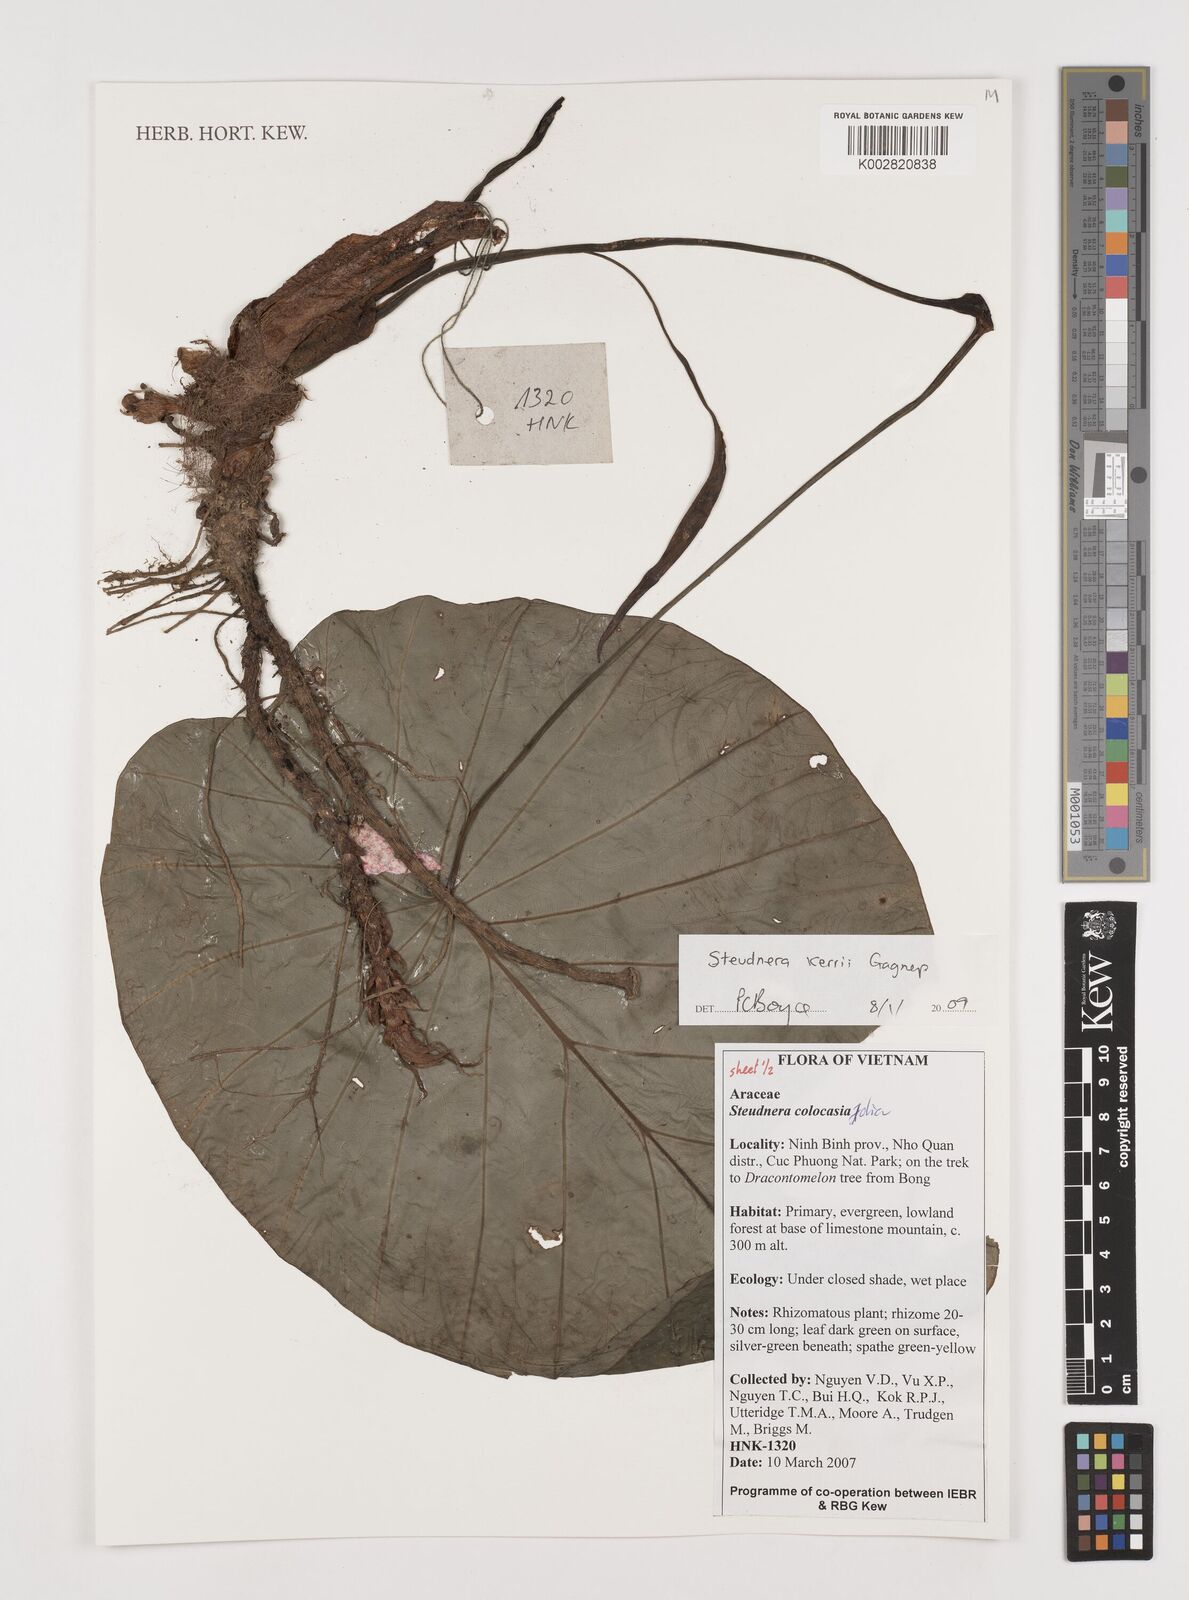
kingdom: Plantae
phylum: Tracheophyta
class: Liliopsida
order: Alismatales
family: Araceae
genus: Steudnera
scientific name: Steudnera kerrii
